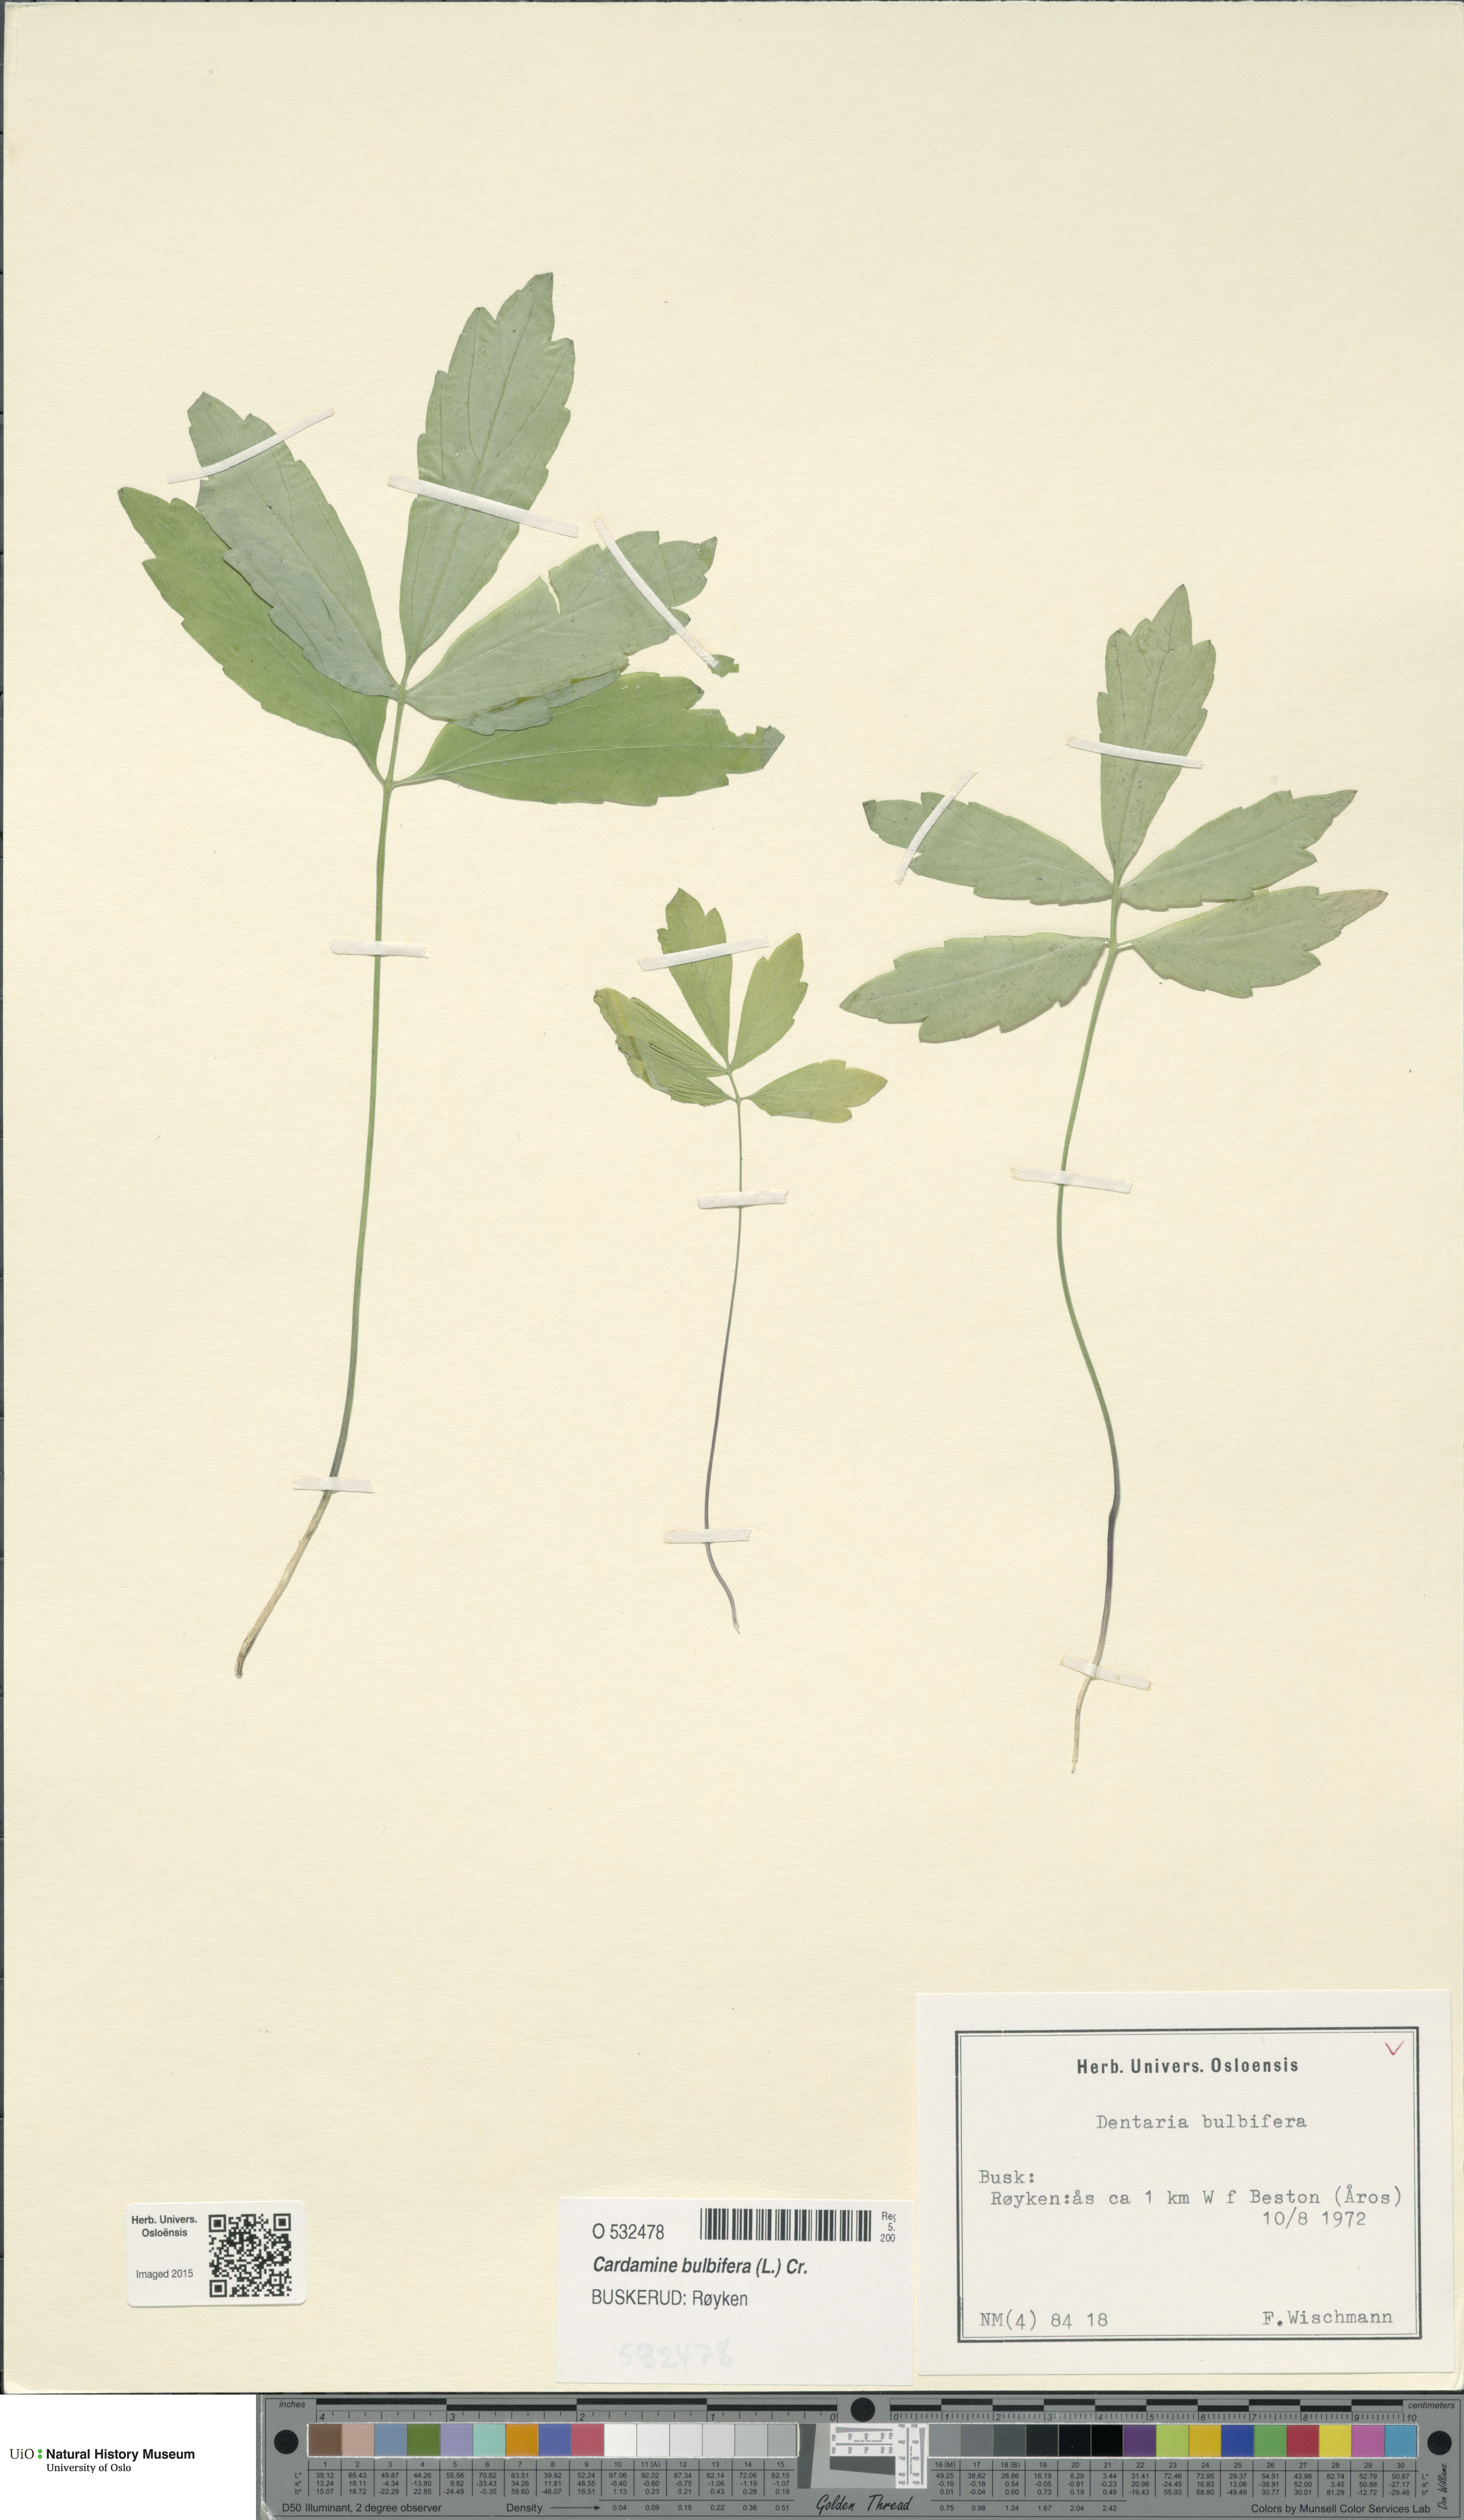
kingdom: Plantae
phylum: Tracheophyta
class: Magnoliopsida
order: Brassicales
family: Brassicaceae
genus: Cardamine
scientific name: Cardamine bulbifera
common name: Coralroot bittercress
